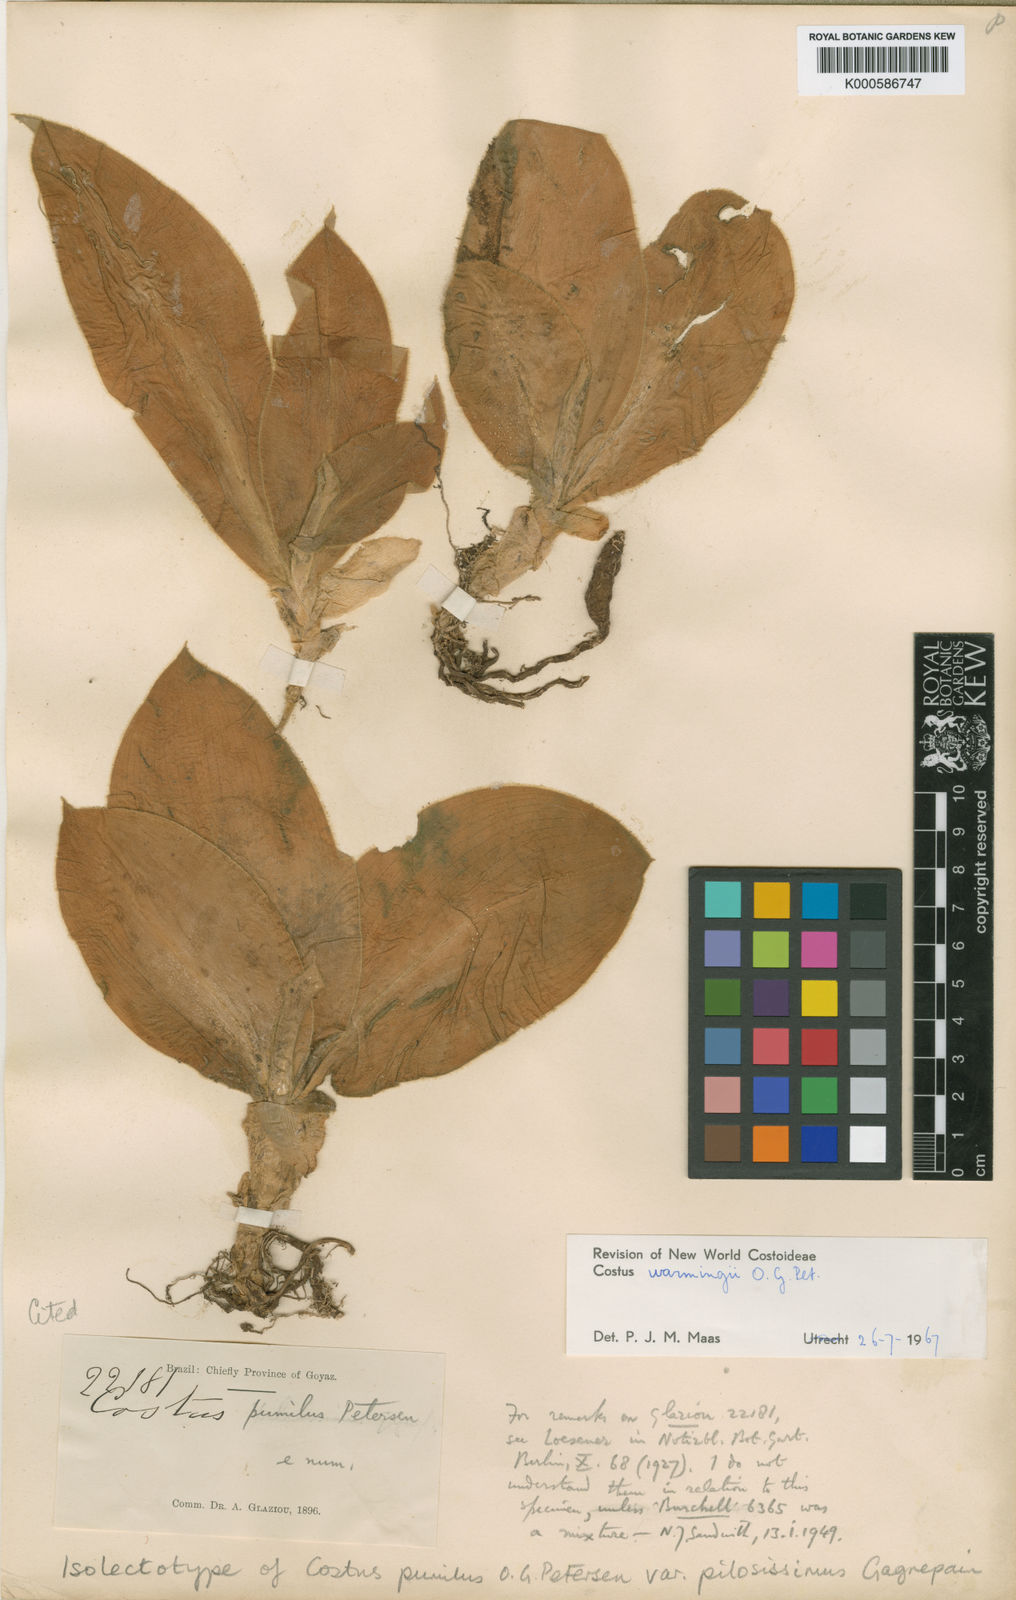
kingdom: Plantae
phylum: Tracheophyta
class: Liliopsida
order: Zingiberales
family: Costaceae
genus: Chamaecostus
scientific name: Chamaecostus subsessilis
